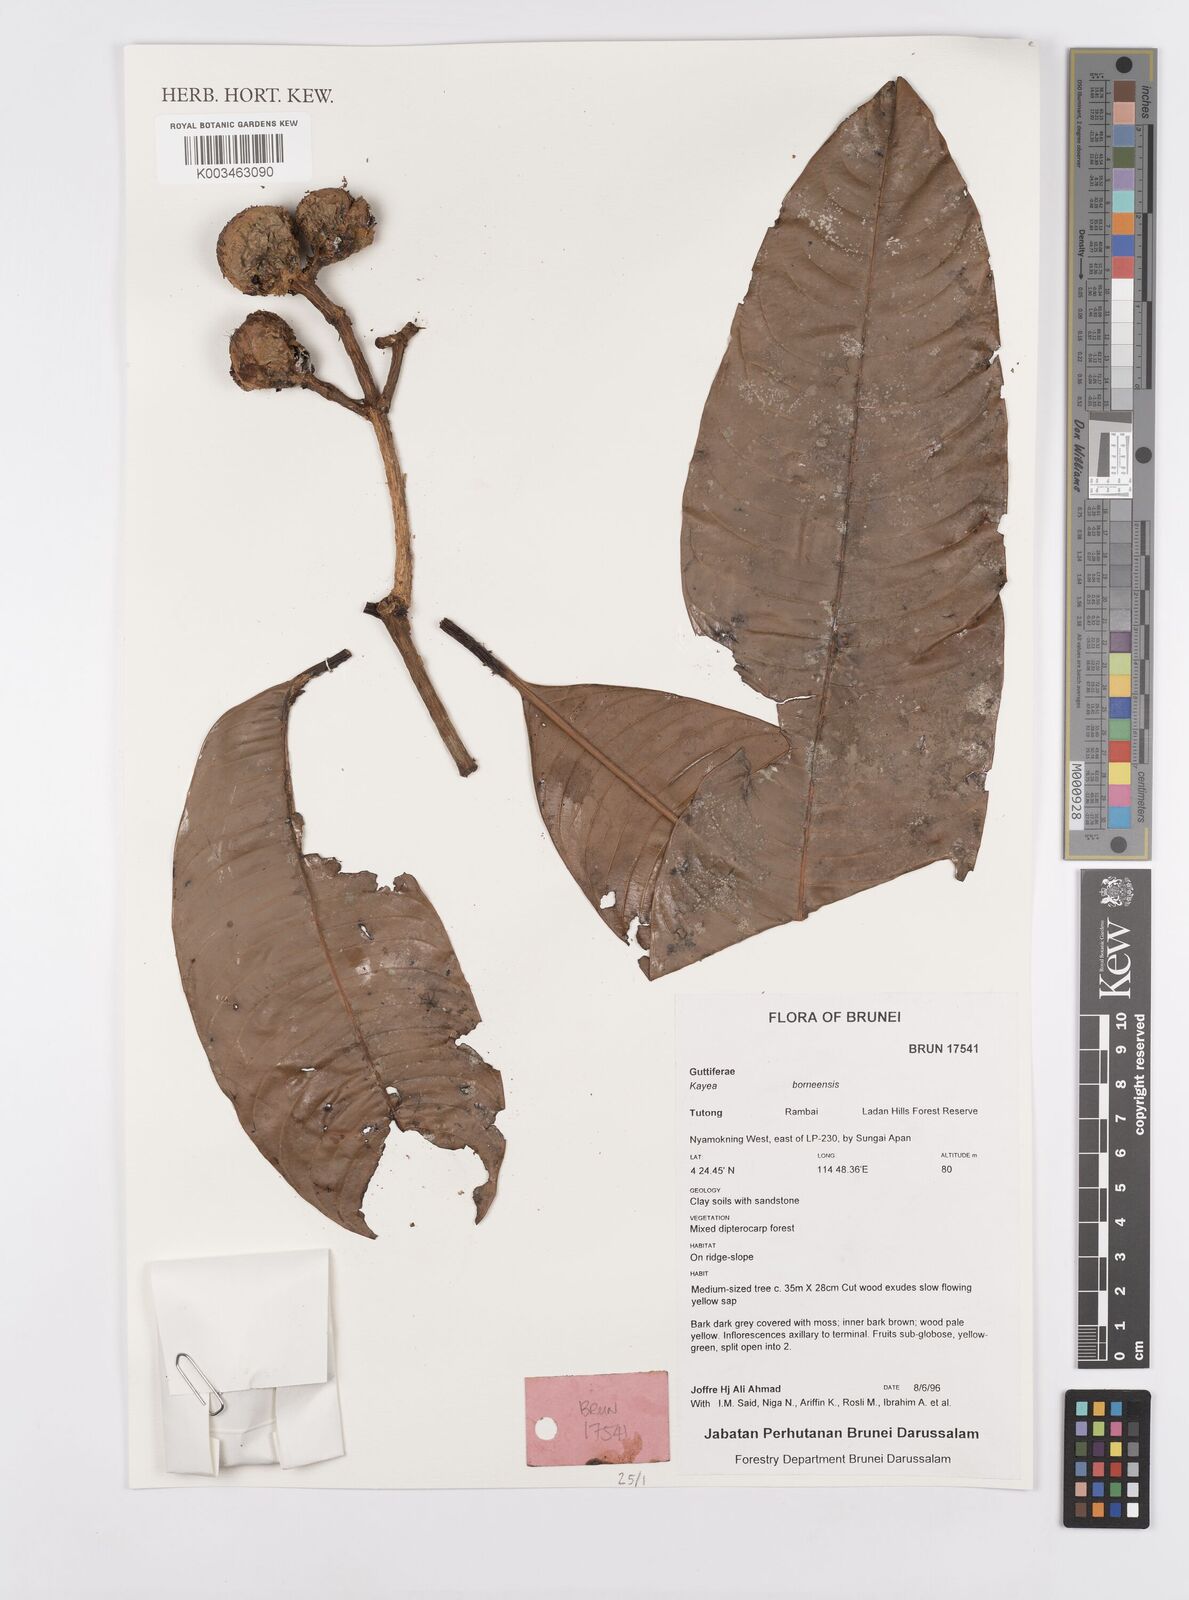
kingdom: Plantae
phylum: Tracheophyta
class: Magnoliopsida
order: Malpighiales
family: Calophyllaceae
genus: Kayea
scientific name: Kayea borneensis
